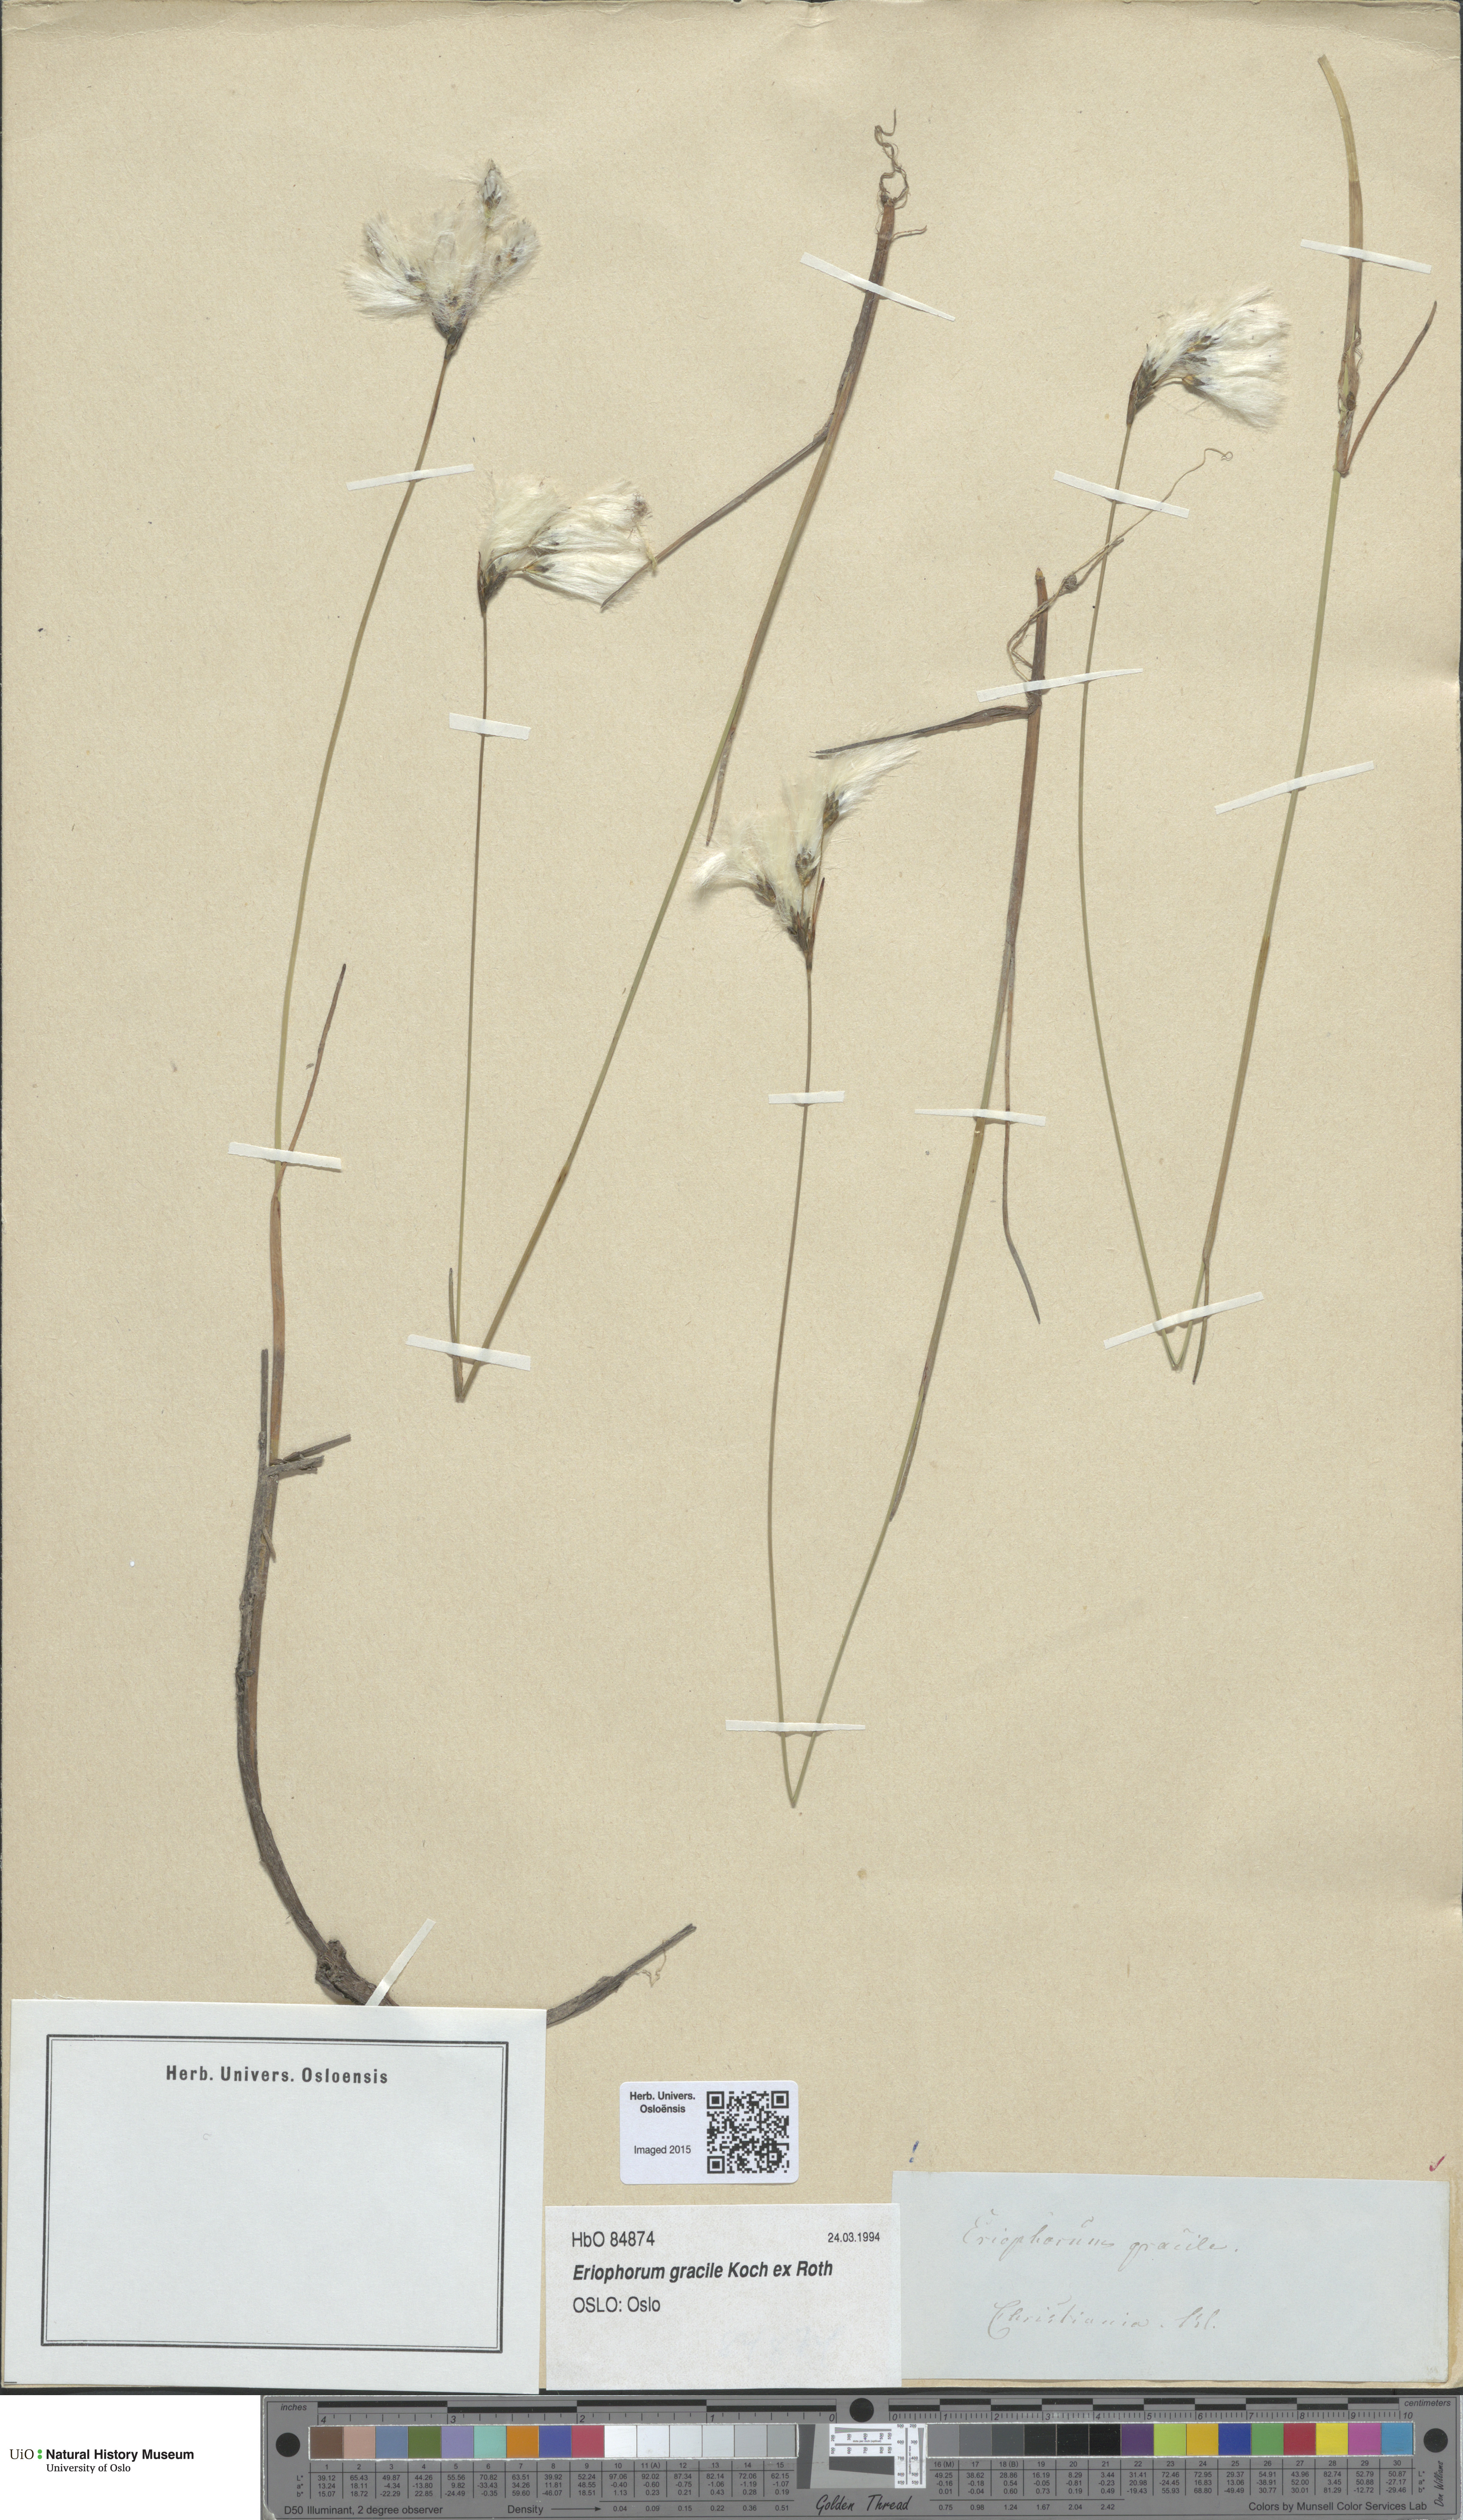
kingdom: Plantae
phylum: Tracheophyta
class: Liliopsida
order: Poales
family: Cyperaceae
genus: Eriophorum
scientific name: Eriophorum gracile
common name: Slender cottongrass
